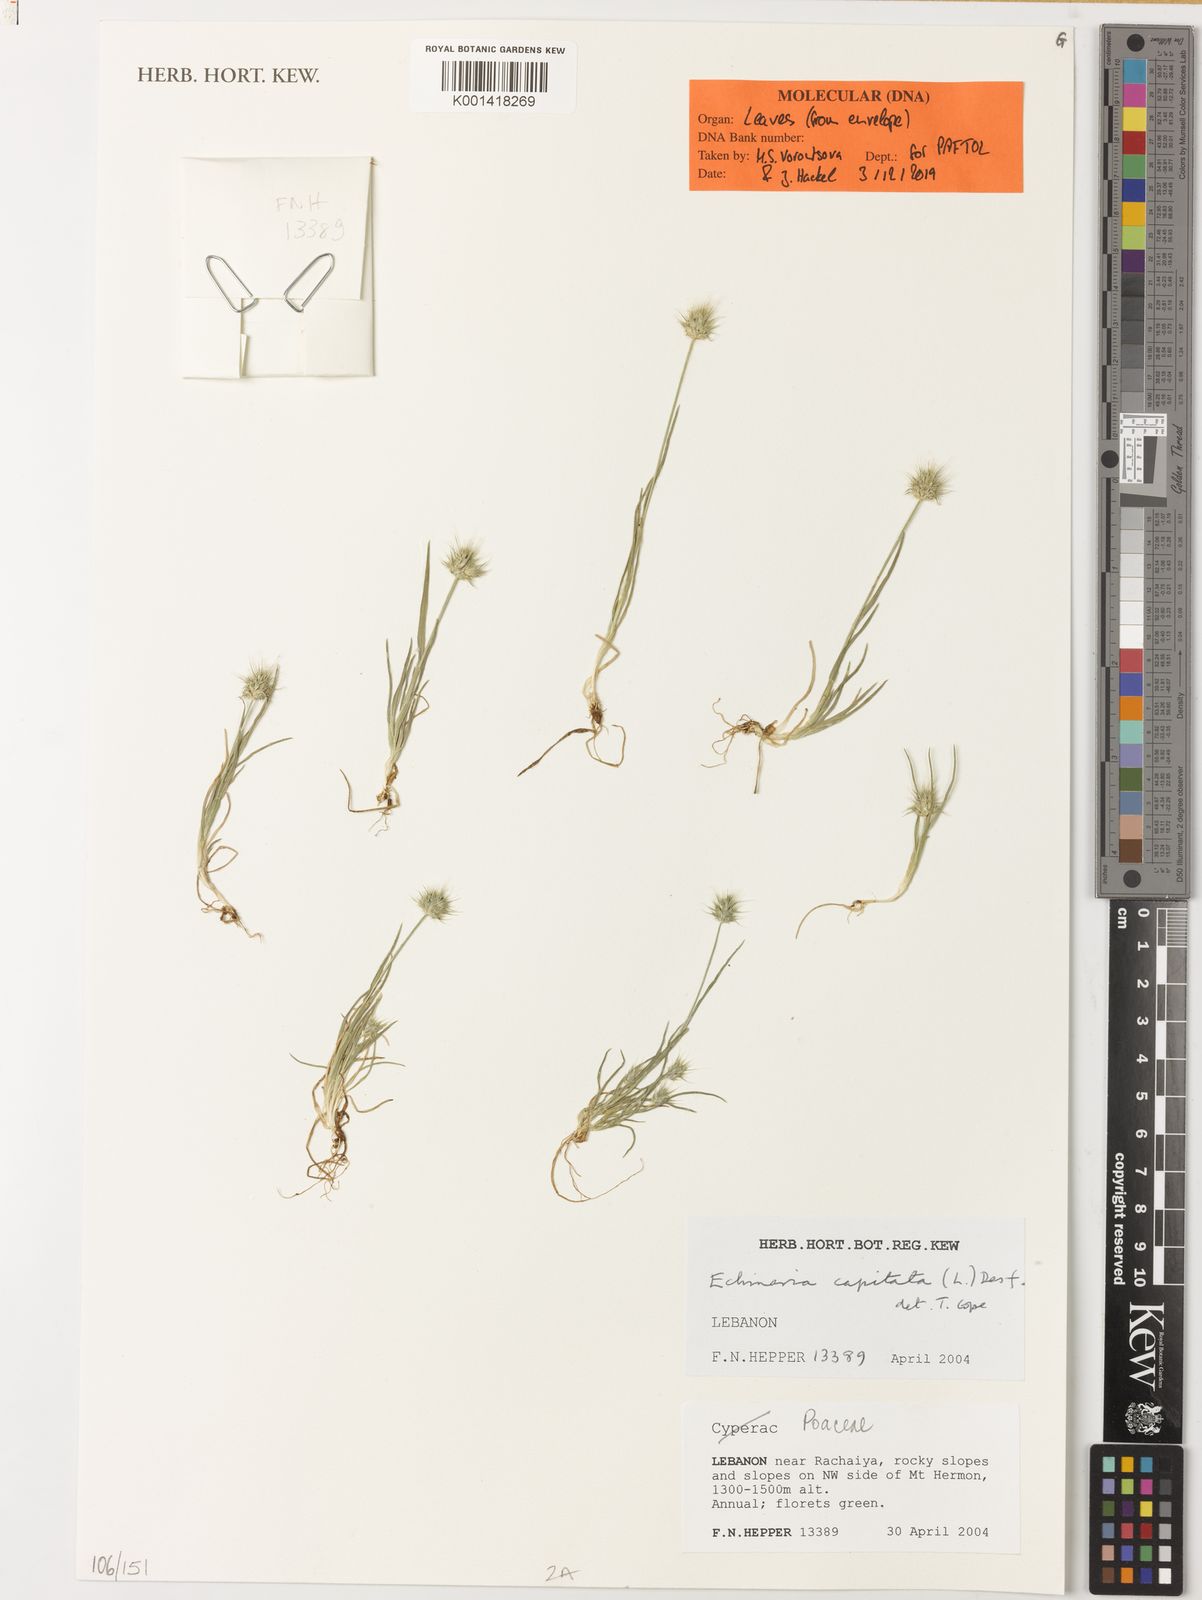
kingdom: Plantae
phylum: Tracheophyta
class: Liliopsida
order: Poales
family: Poaceae
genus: Echinaria
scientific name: Echinaria capitata
